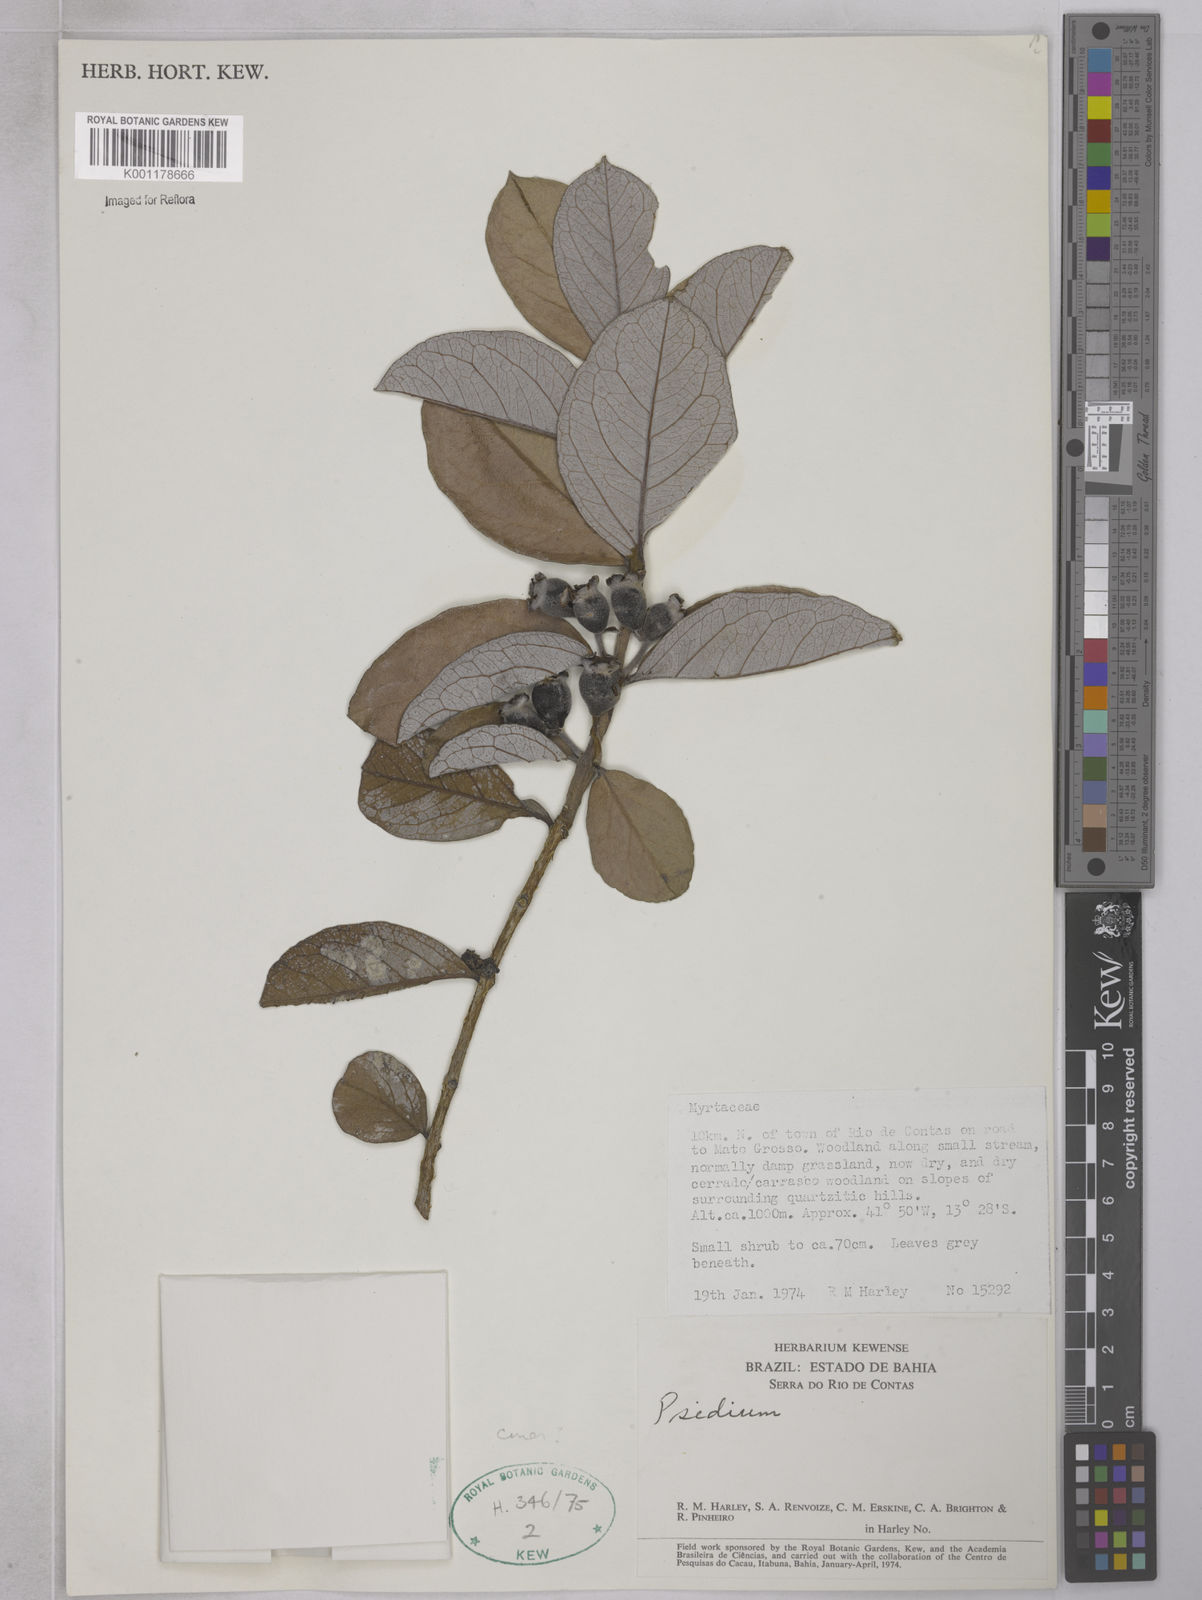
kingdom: Plantae
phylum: Tracheophyta
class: Magnoliopsida
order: Myrtales
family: Myrtaceae
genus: Psidium
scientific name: Psidium grandifolium
